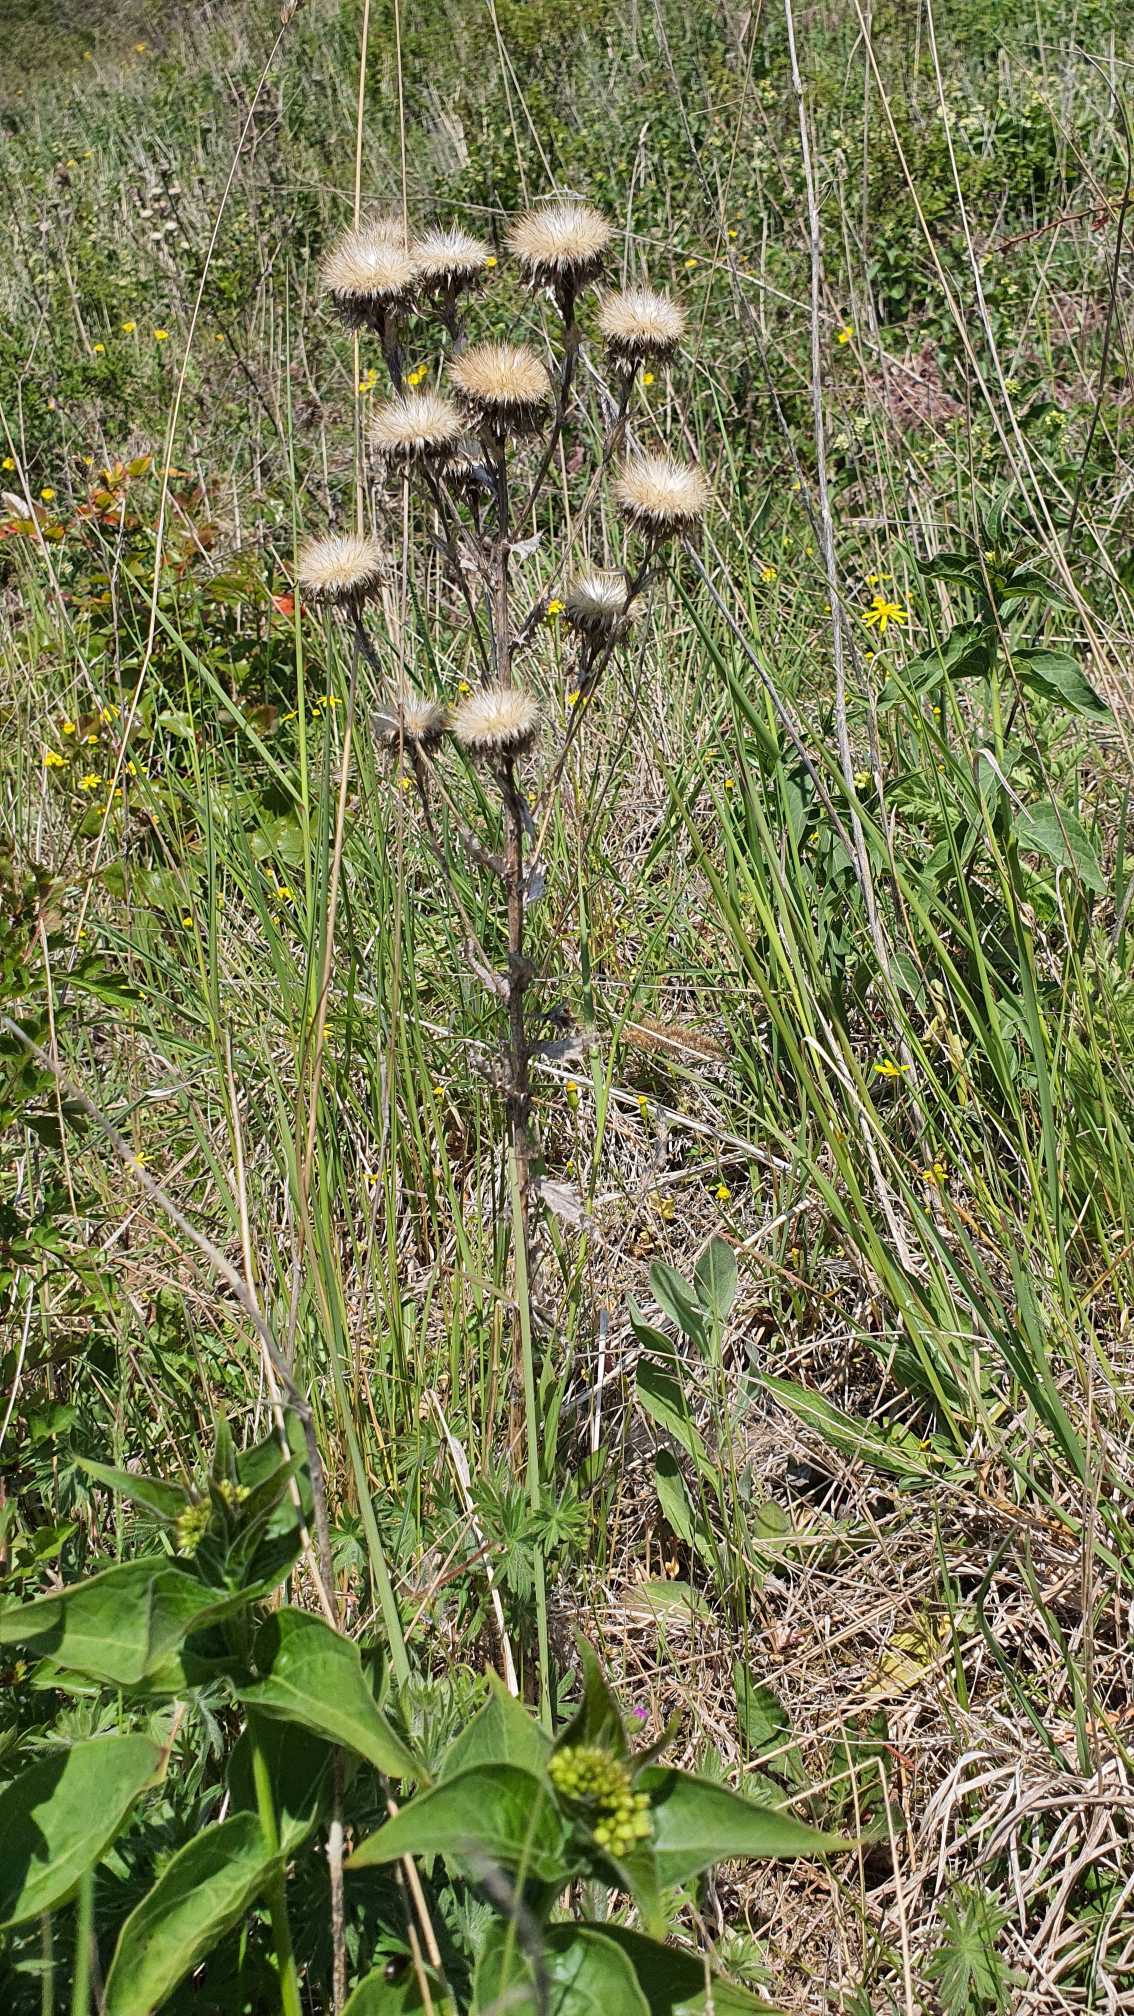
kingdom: Plantae
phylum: Tracheophyta
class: Magnoliopsida
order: Asterales
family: Asteraceae
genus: Carlina
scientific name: Carlina vulgaris
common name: Bakketidsel
